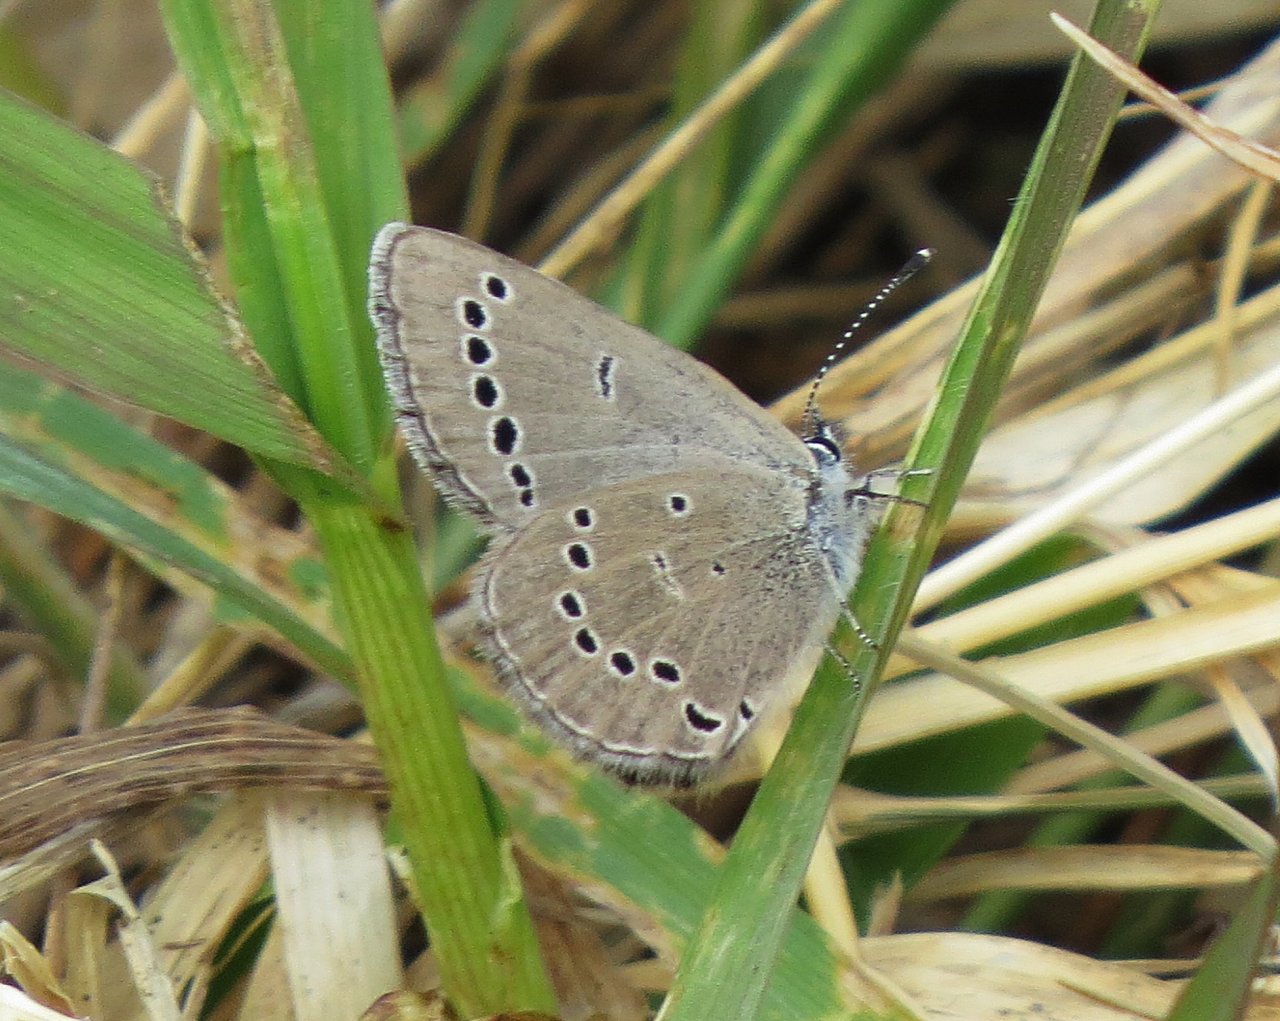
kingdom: Animalia
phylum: Arthropoda
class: Insecta
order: Lepidoptera
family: Lycaenidae
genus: Glaucopsyche
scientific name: Glaucopsyche lygdamus
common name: Silvery Blue
